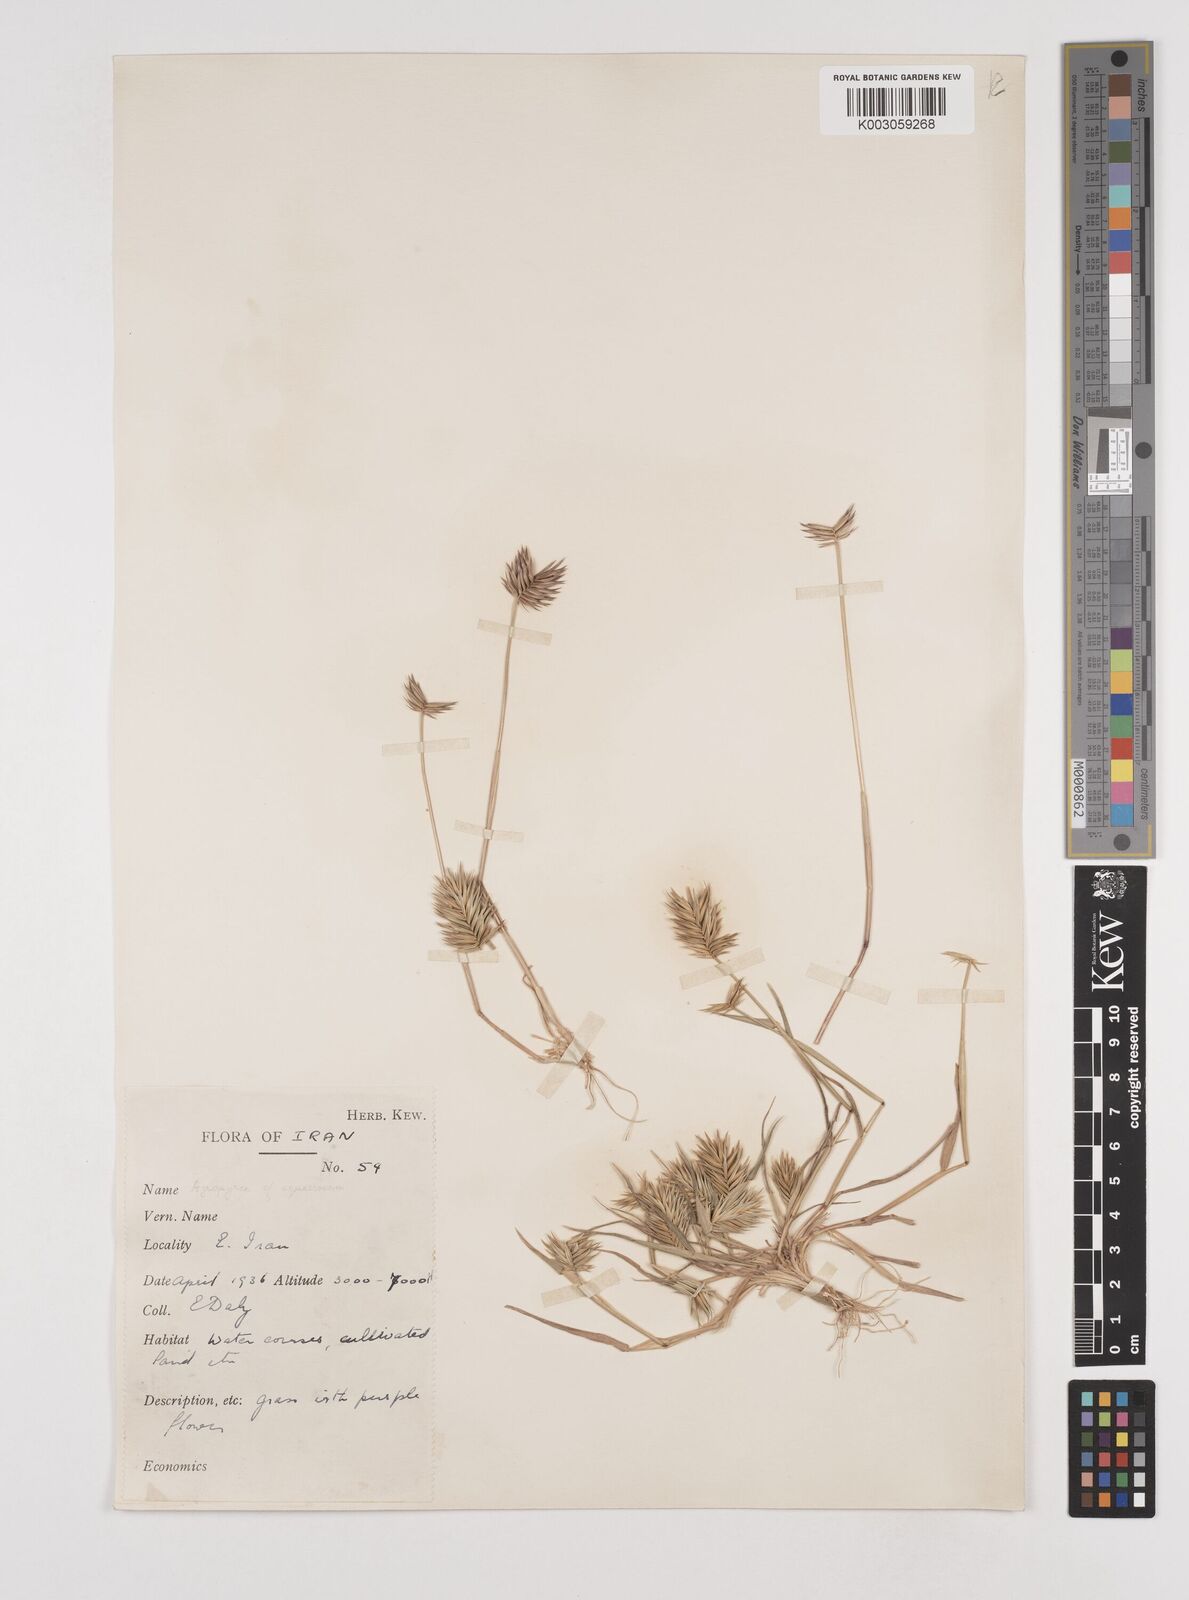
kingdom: Plantae
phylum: Tracheophyta
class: Liliopsida
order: Poales
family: Poaceae
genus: Eremopyrum
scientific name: Eremopyrum bonaepartis
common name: Tapertip false wheatgrass
